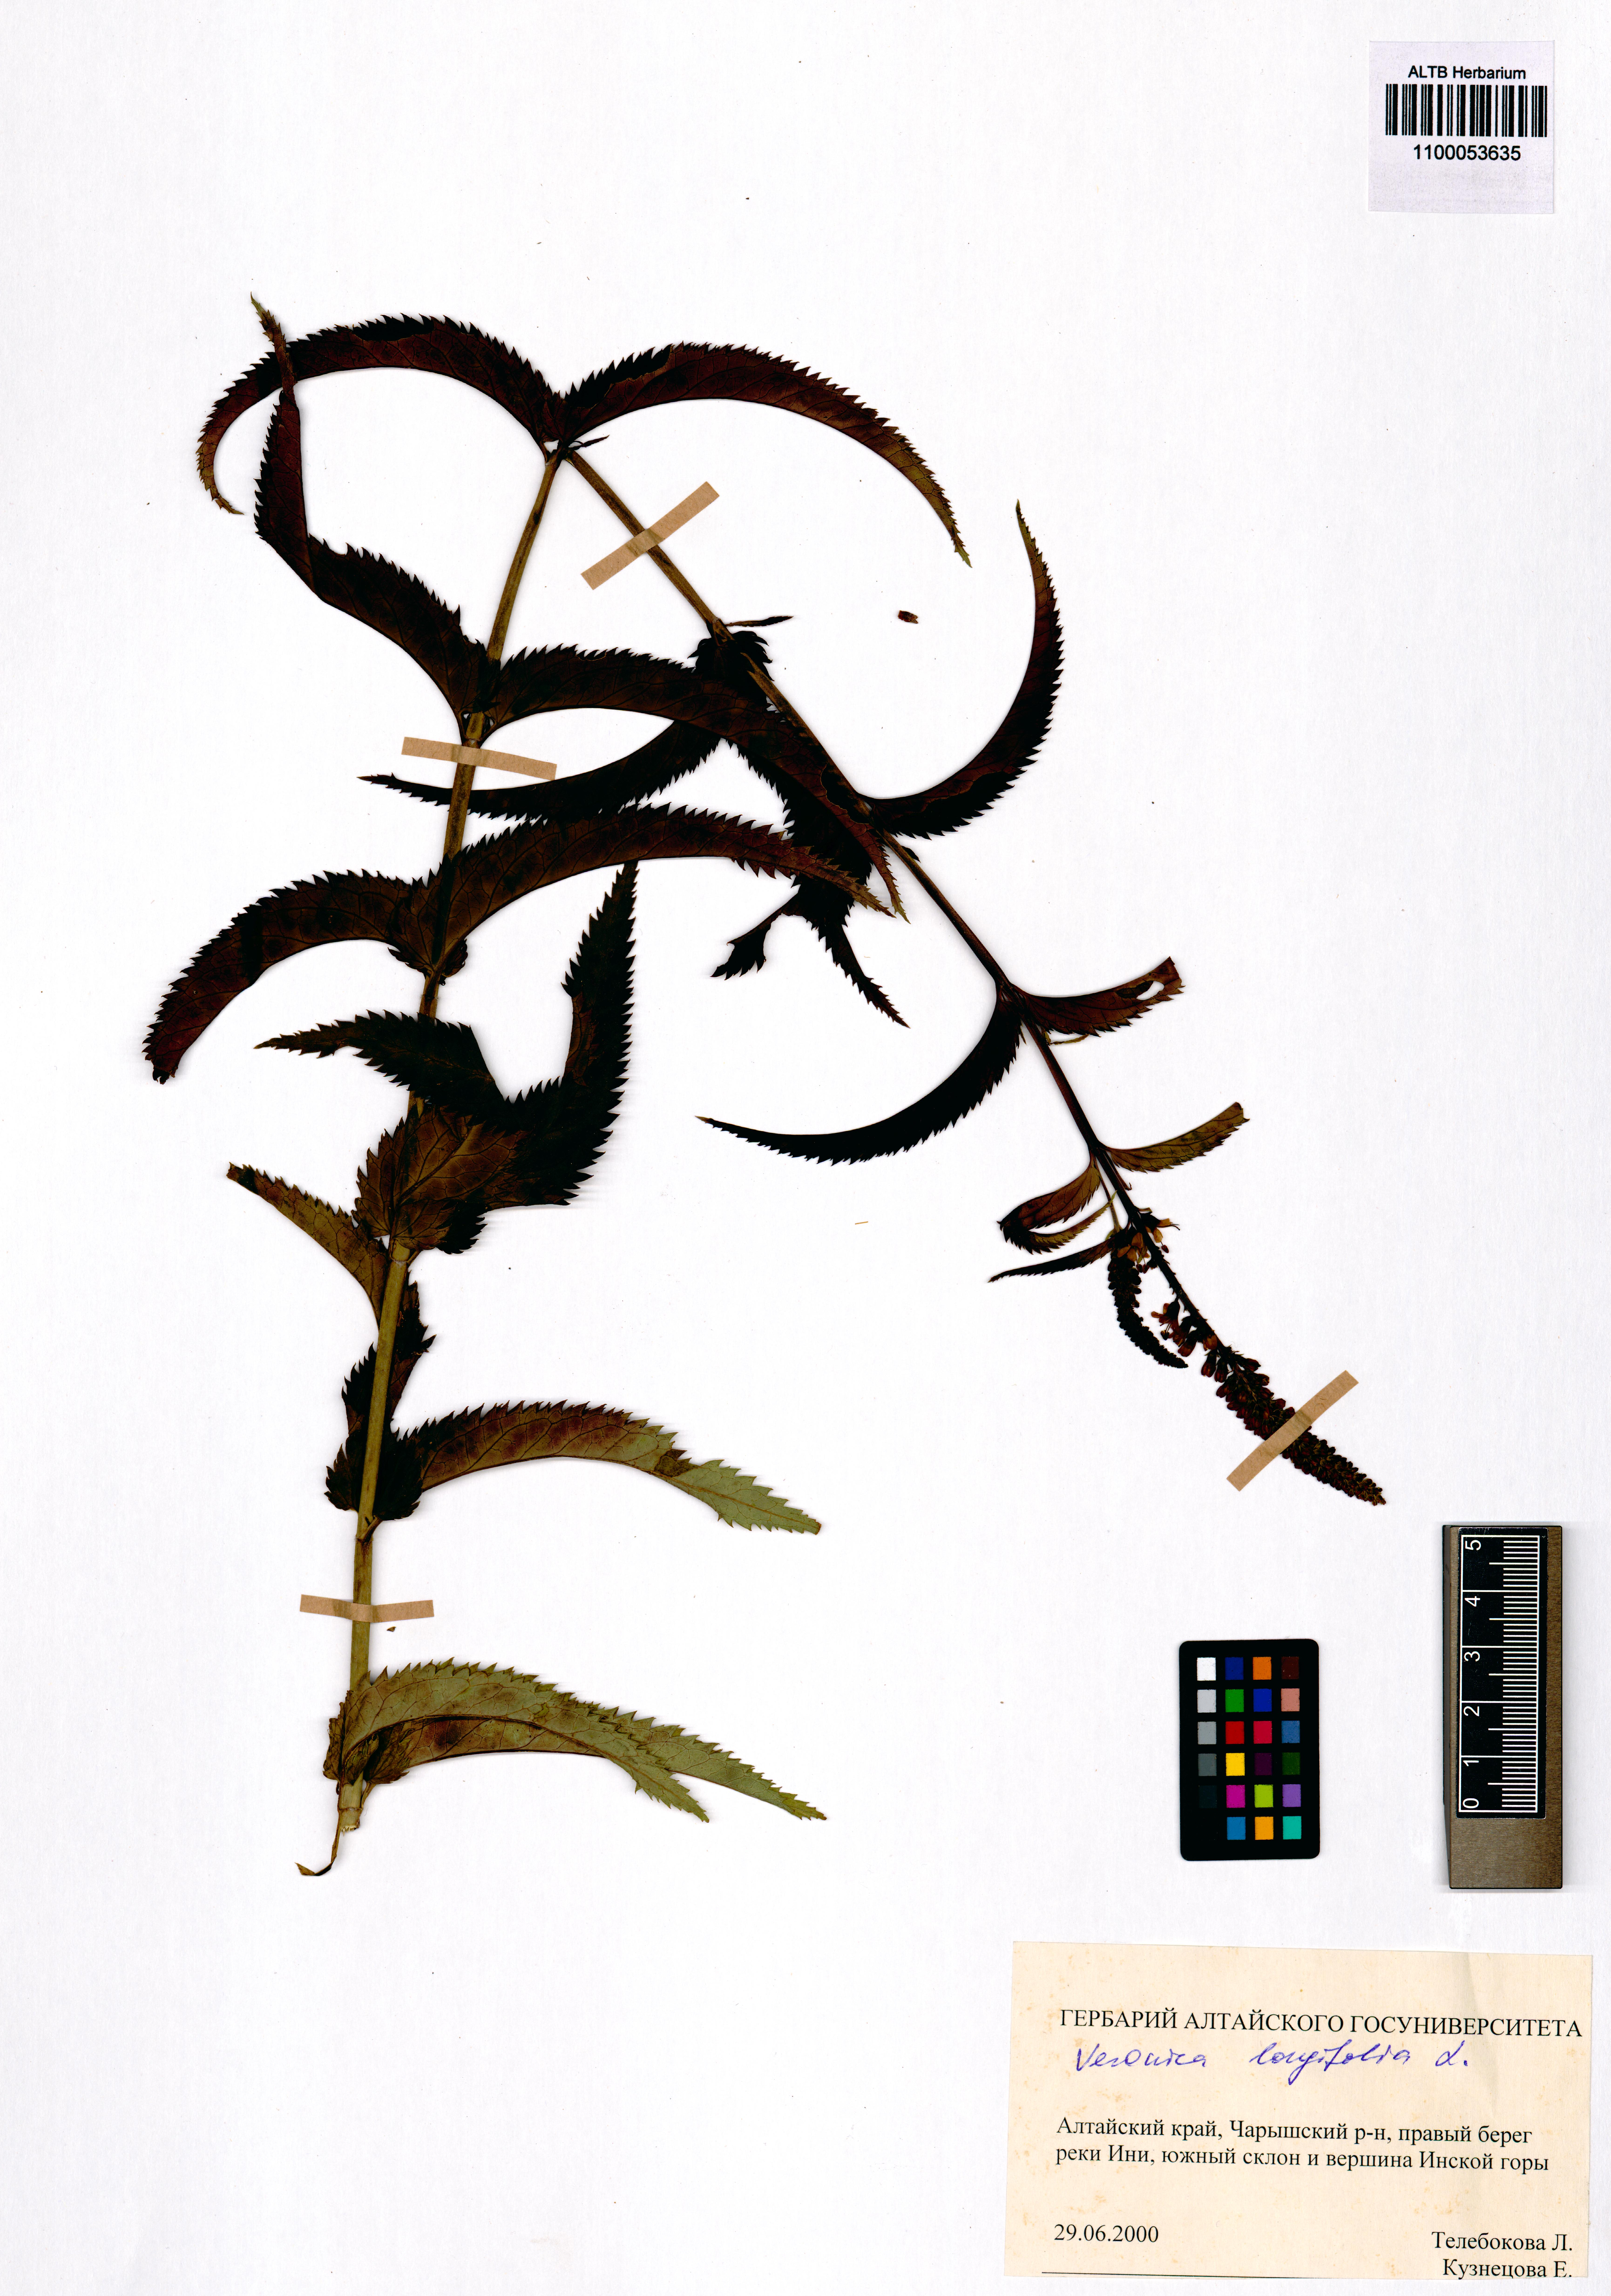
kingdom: Plantae
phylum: Tracheophyta
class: Magnoliopsida
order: Lamiales
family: Plantaginaceae
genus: Veronica
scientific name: Veronica longifolia
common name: Garden speedwell
